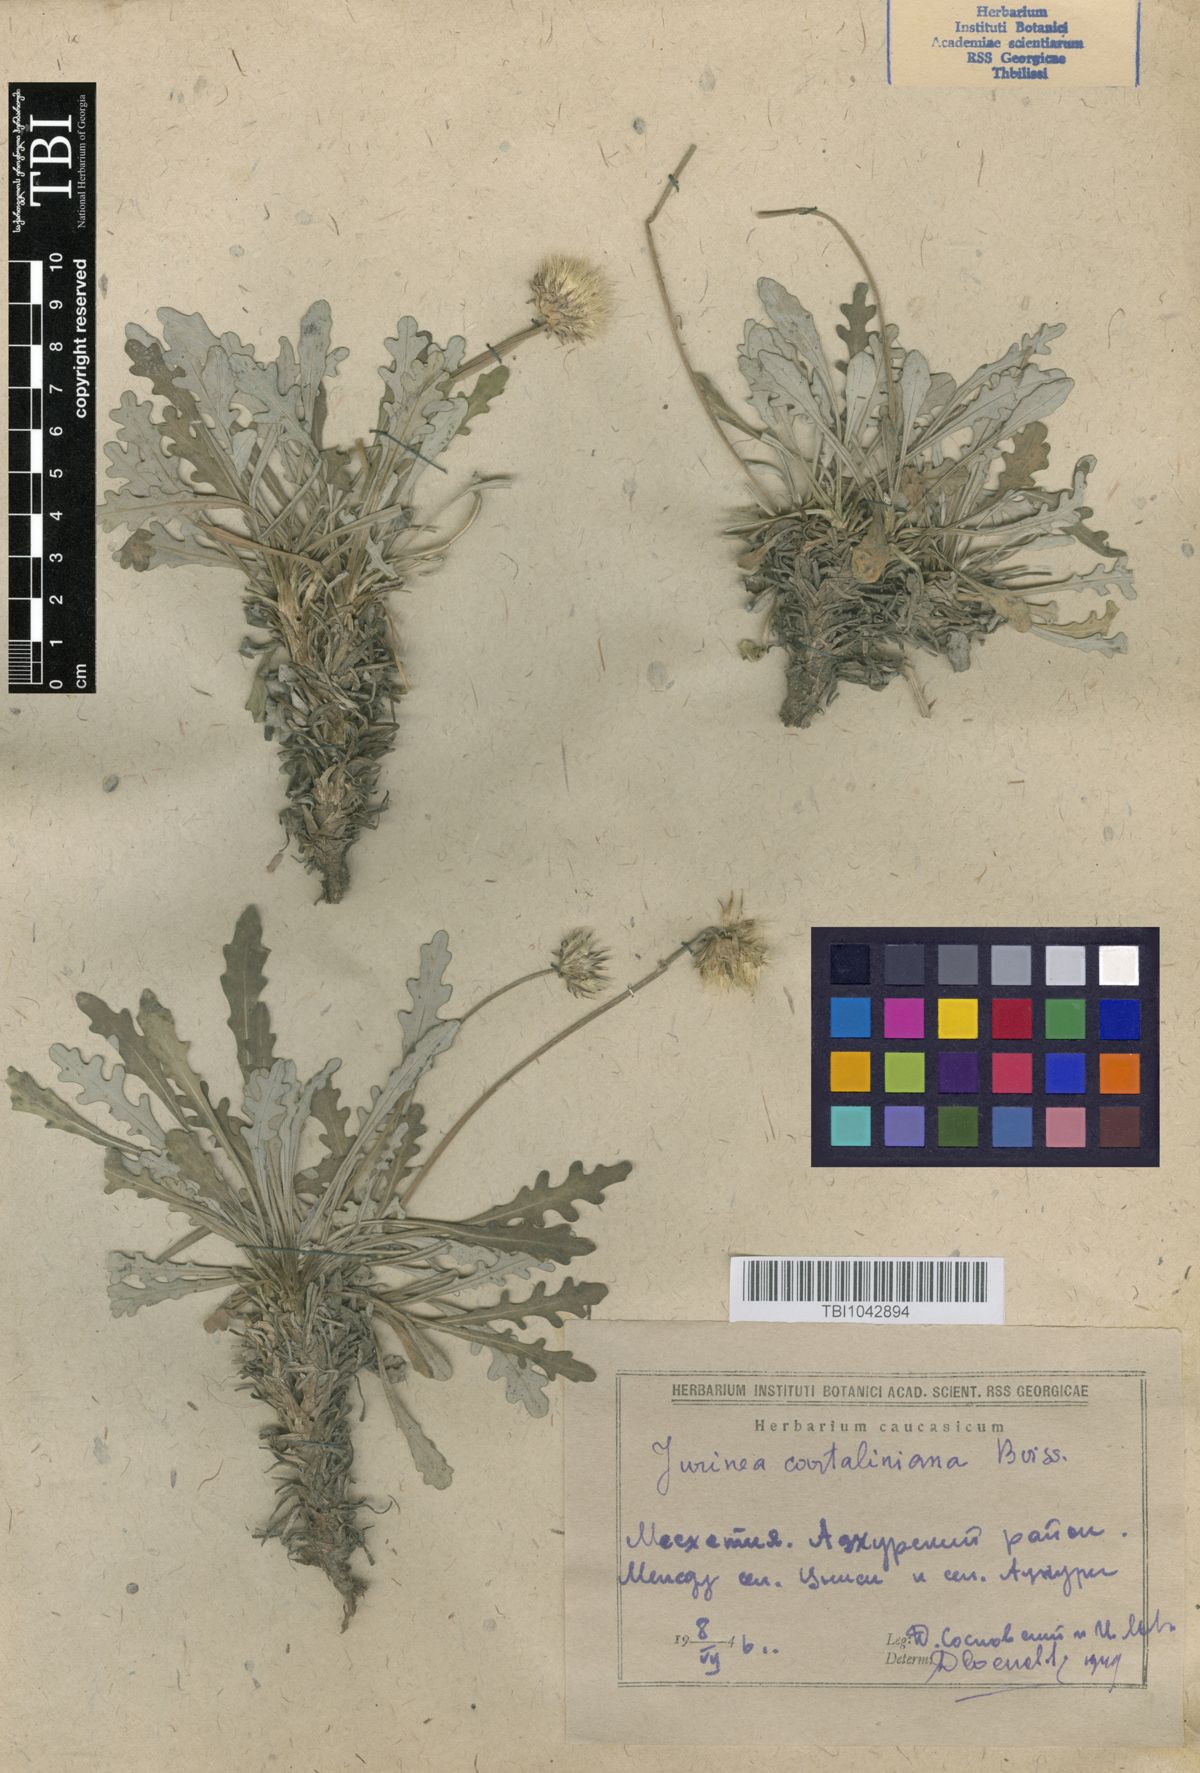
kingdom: Plantae
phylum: Tracheophyta
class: Magnoliopsida
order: Asterales
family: Asteraceae
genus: Jurinea
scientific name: Jurinea cartaliniana
